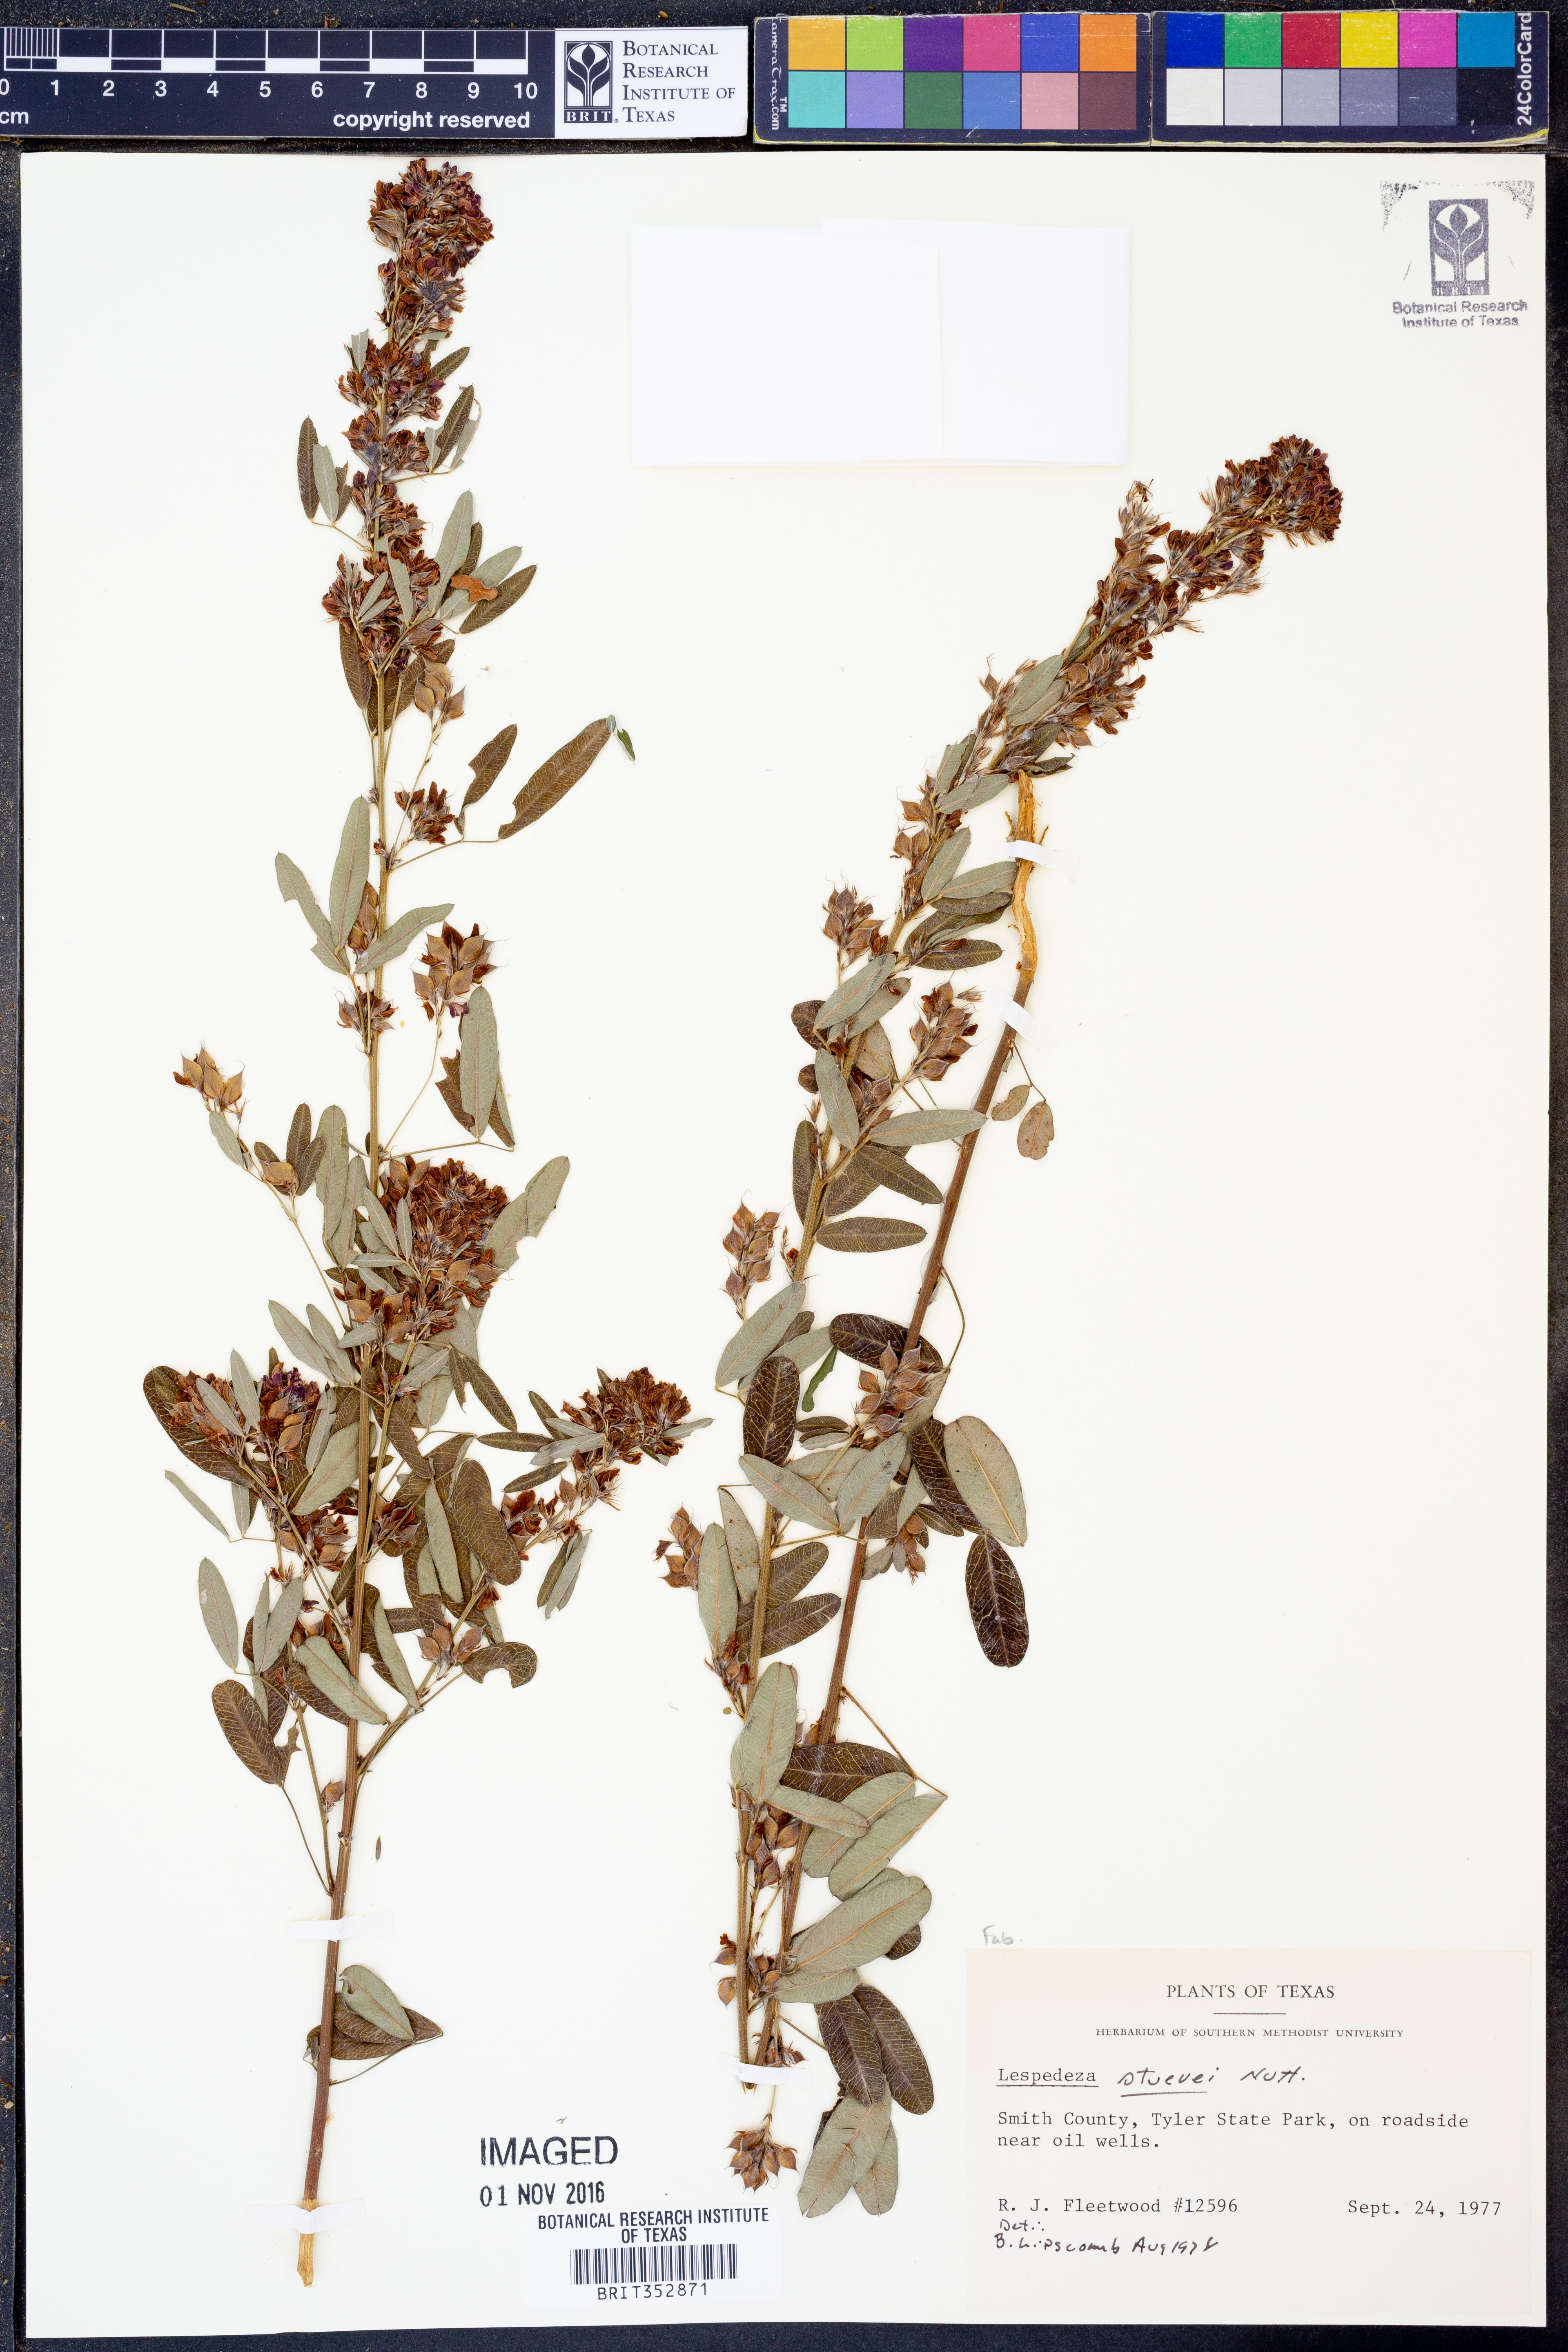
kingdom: Plantae
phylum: Tracheophyta
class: Magnoliopsida
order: Fabales
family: Fabaceae
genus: Lespedeza
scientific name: Lespedeza stuevei
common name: Tall bush-clover
